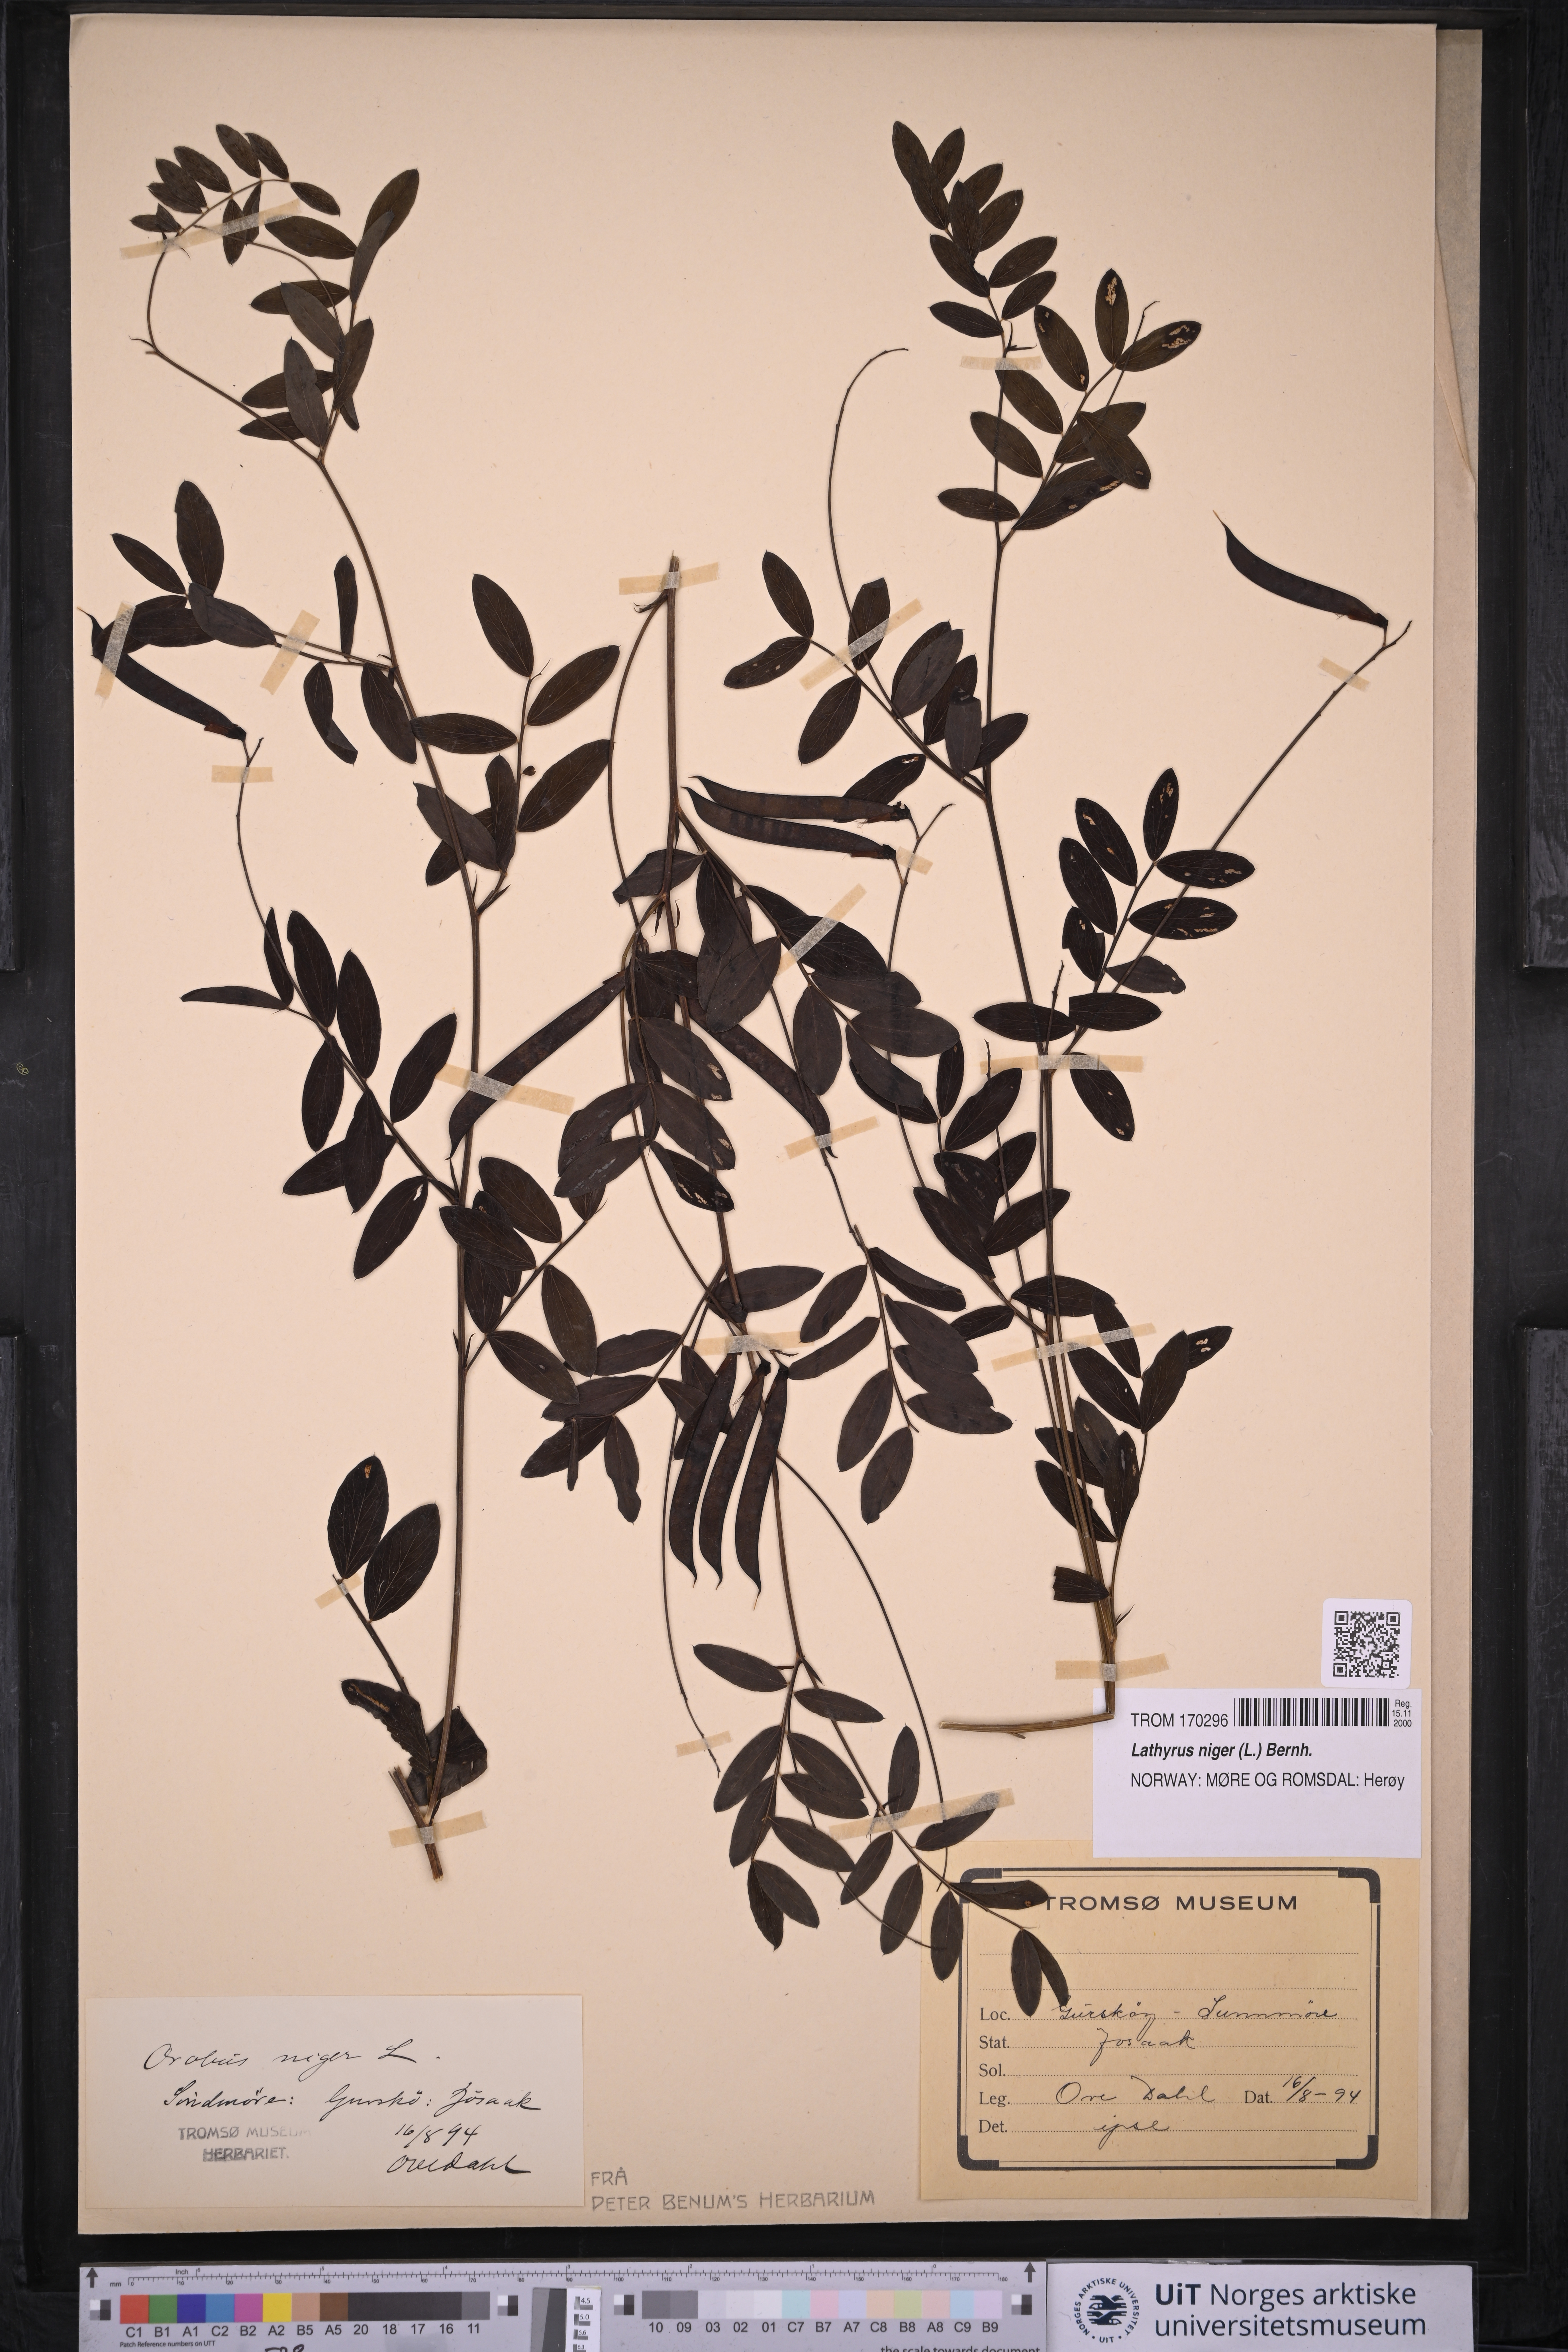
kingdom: Plantae
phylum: Tracheophyta
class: Magnoliopsida
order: Fabales
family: Fabaceae
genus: Lathyrus
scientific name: Lathyrus niger
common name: Black pea
